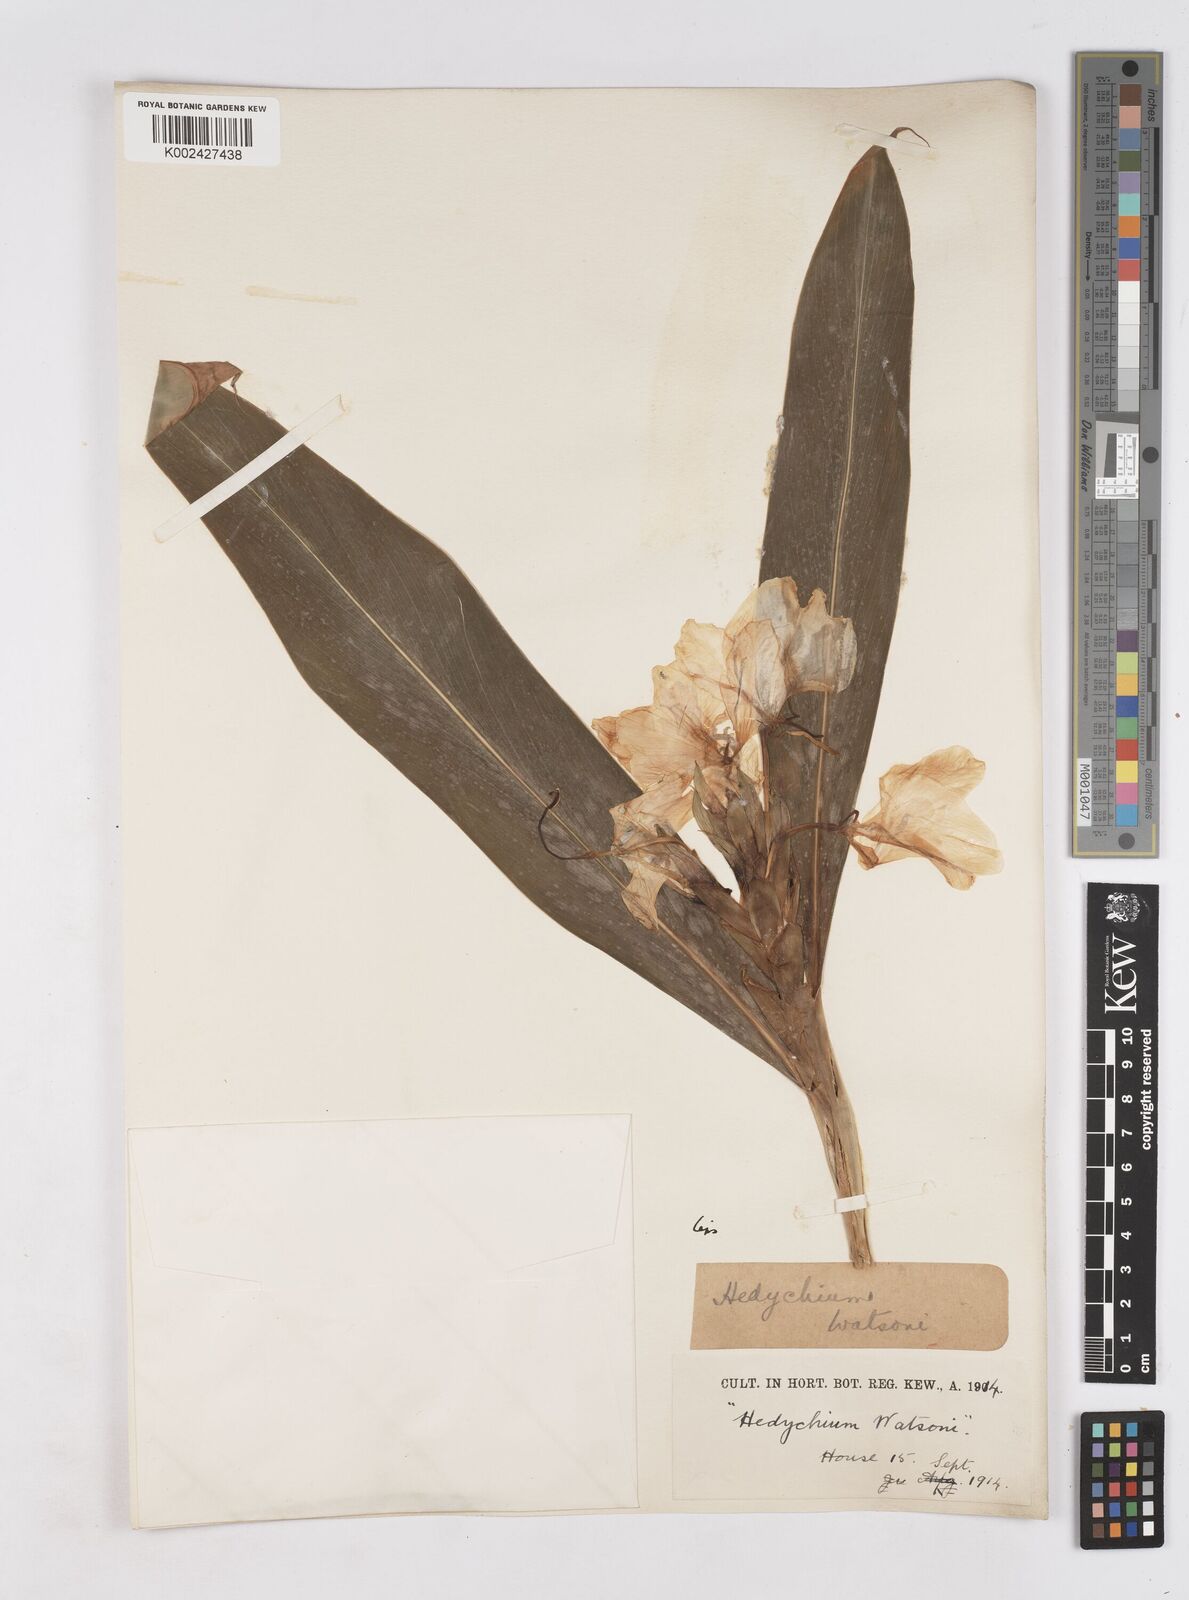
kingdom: Plantae
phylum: Tracheophyta
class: Liliopsida
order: Zingiberales
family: Zingiberaceae
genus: Hedychium
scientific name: Hedychium coronarium
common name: White garland-lily
